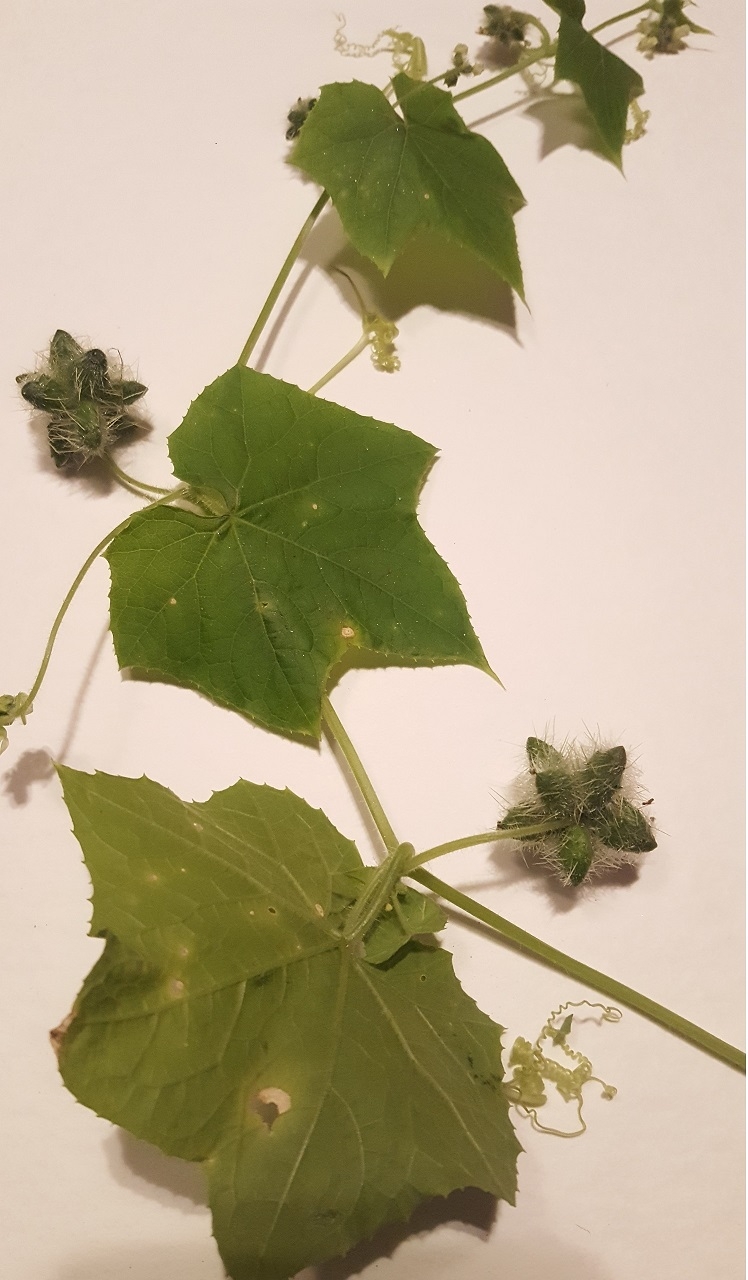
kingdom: Plantae
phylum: Tracheophyta
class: Magnoliopsida
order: Cucurbitales
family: Cucurbitaceae
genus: Sicyos
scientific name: Sicyos angulatus
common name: Bur cucumber
